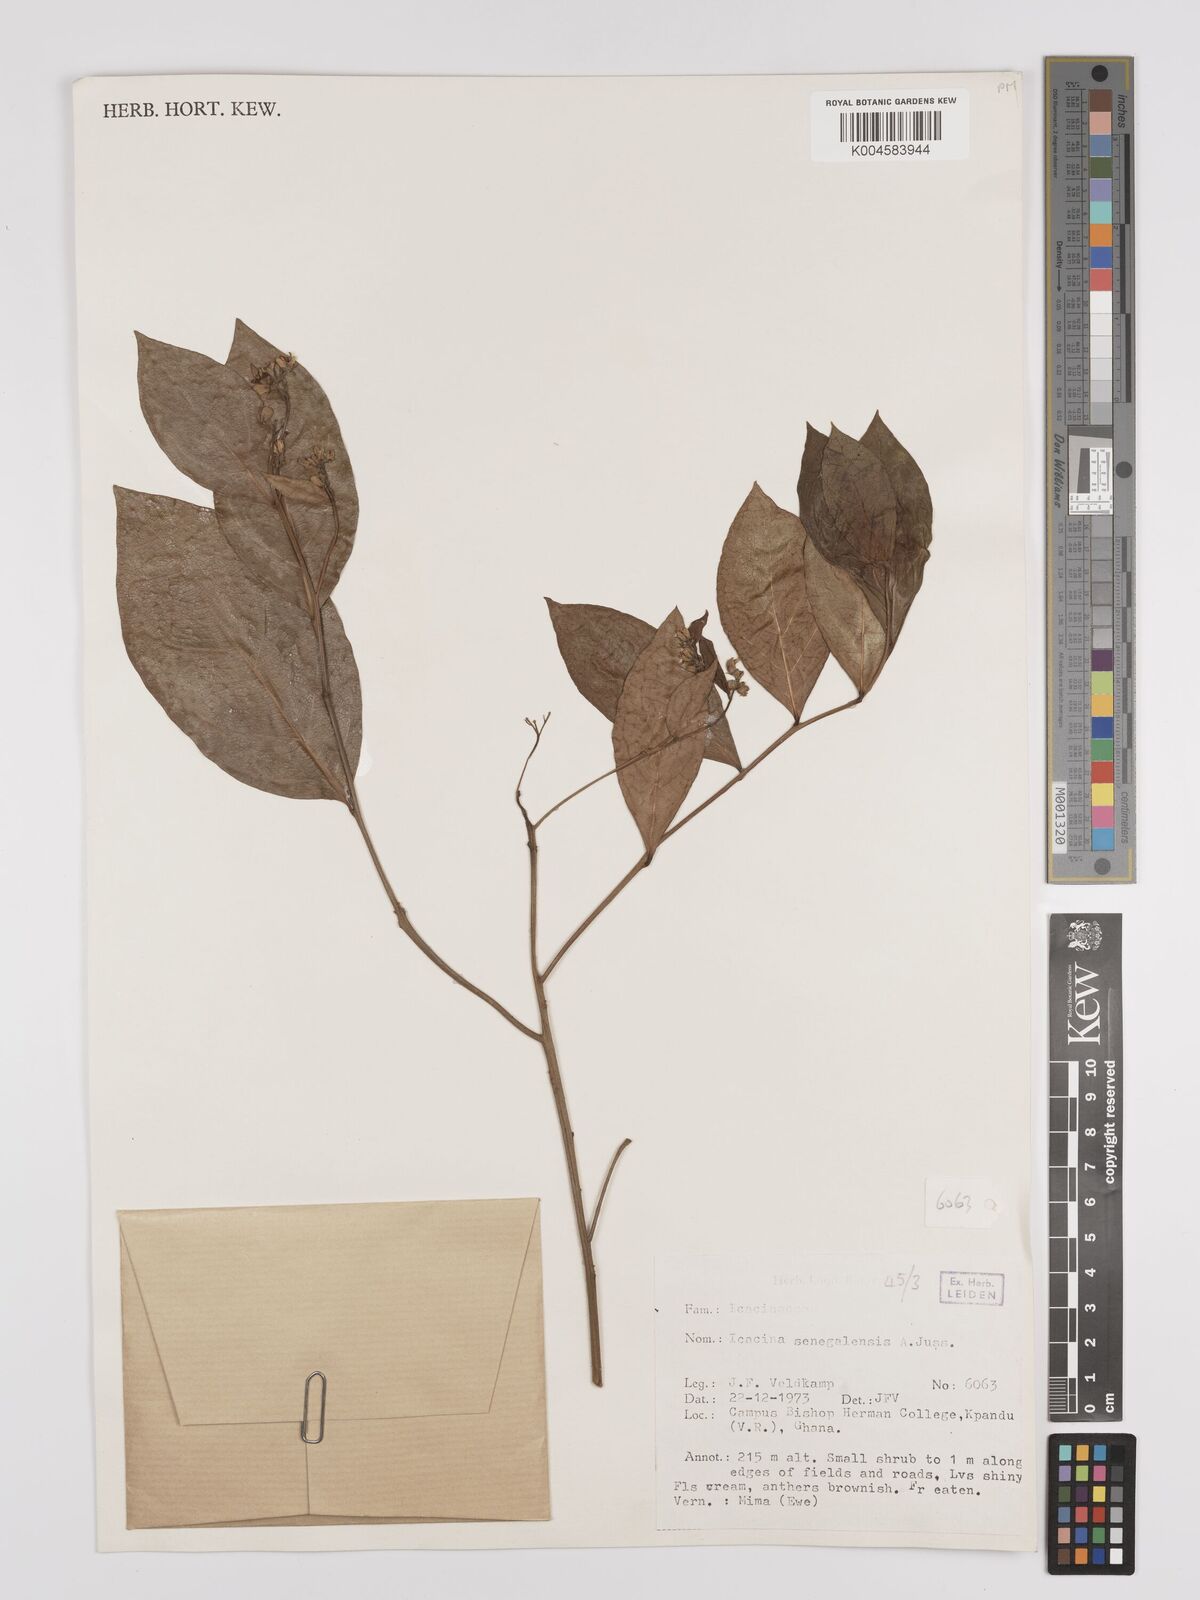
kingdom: Plantae
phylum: Tracheophyta
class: Magnoliopsida
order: Icacinales
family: Icacinaceae
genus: Icacina
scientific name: Icacina oliviformis
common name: False yam
